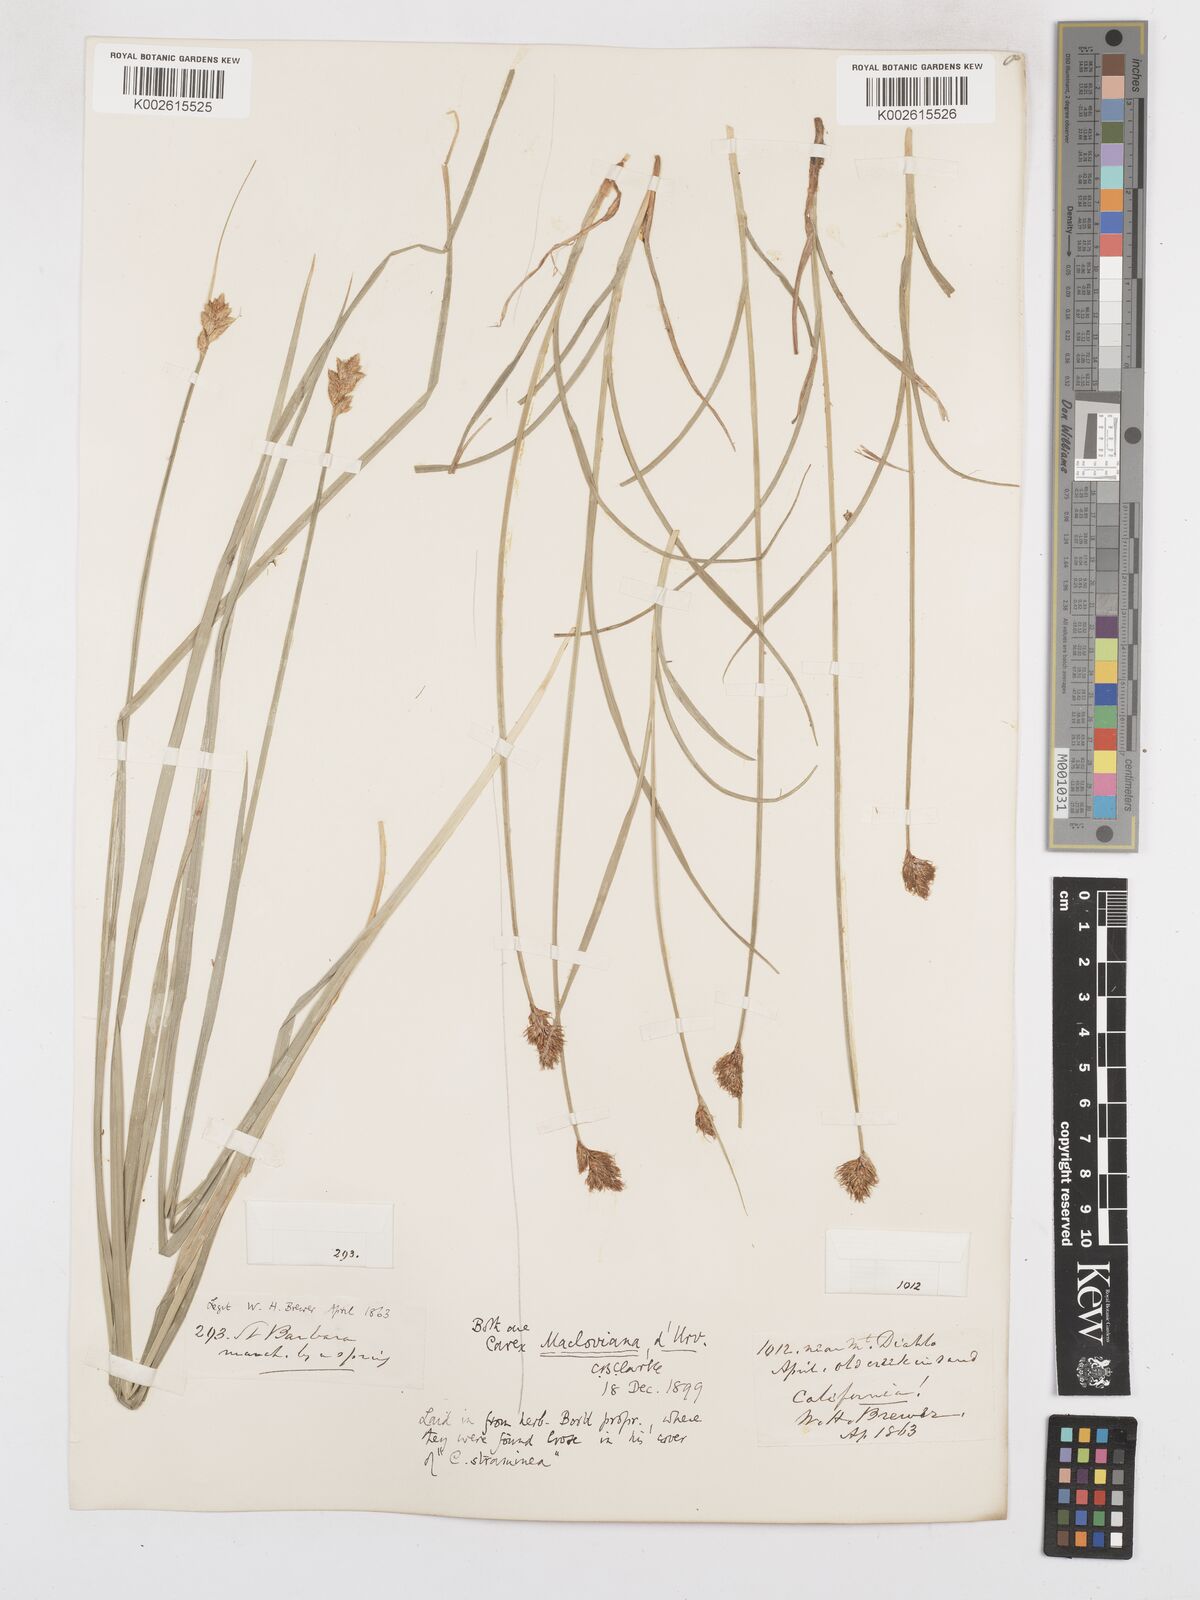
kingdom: Plantae
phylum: Tracheophyta
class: Liliopsida
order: Poales
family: Cyperaceae
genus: Carex
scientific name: Carex macloviana
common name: Falkland island sedge
